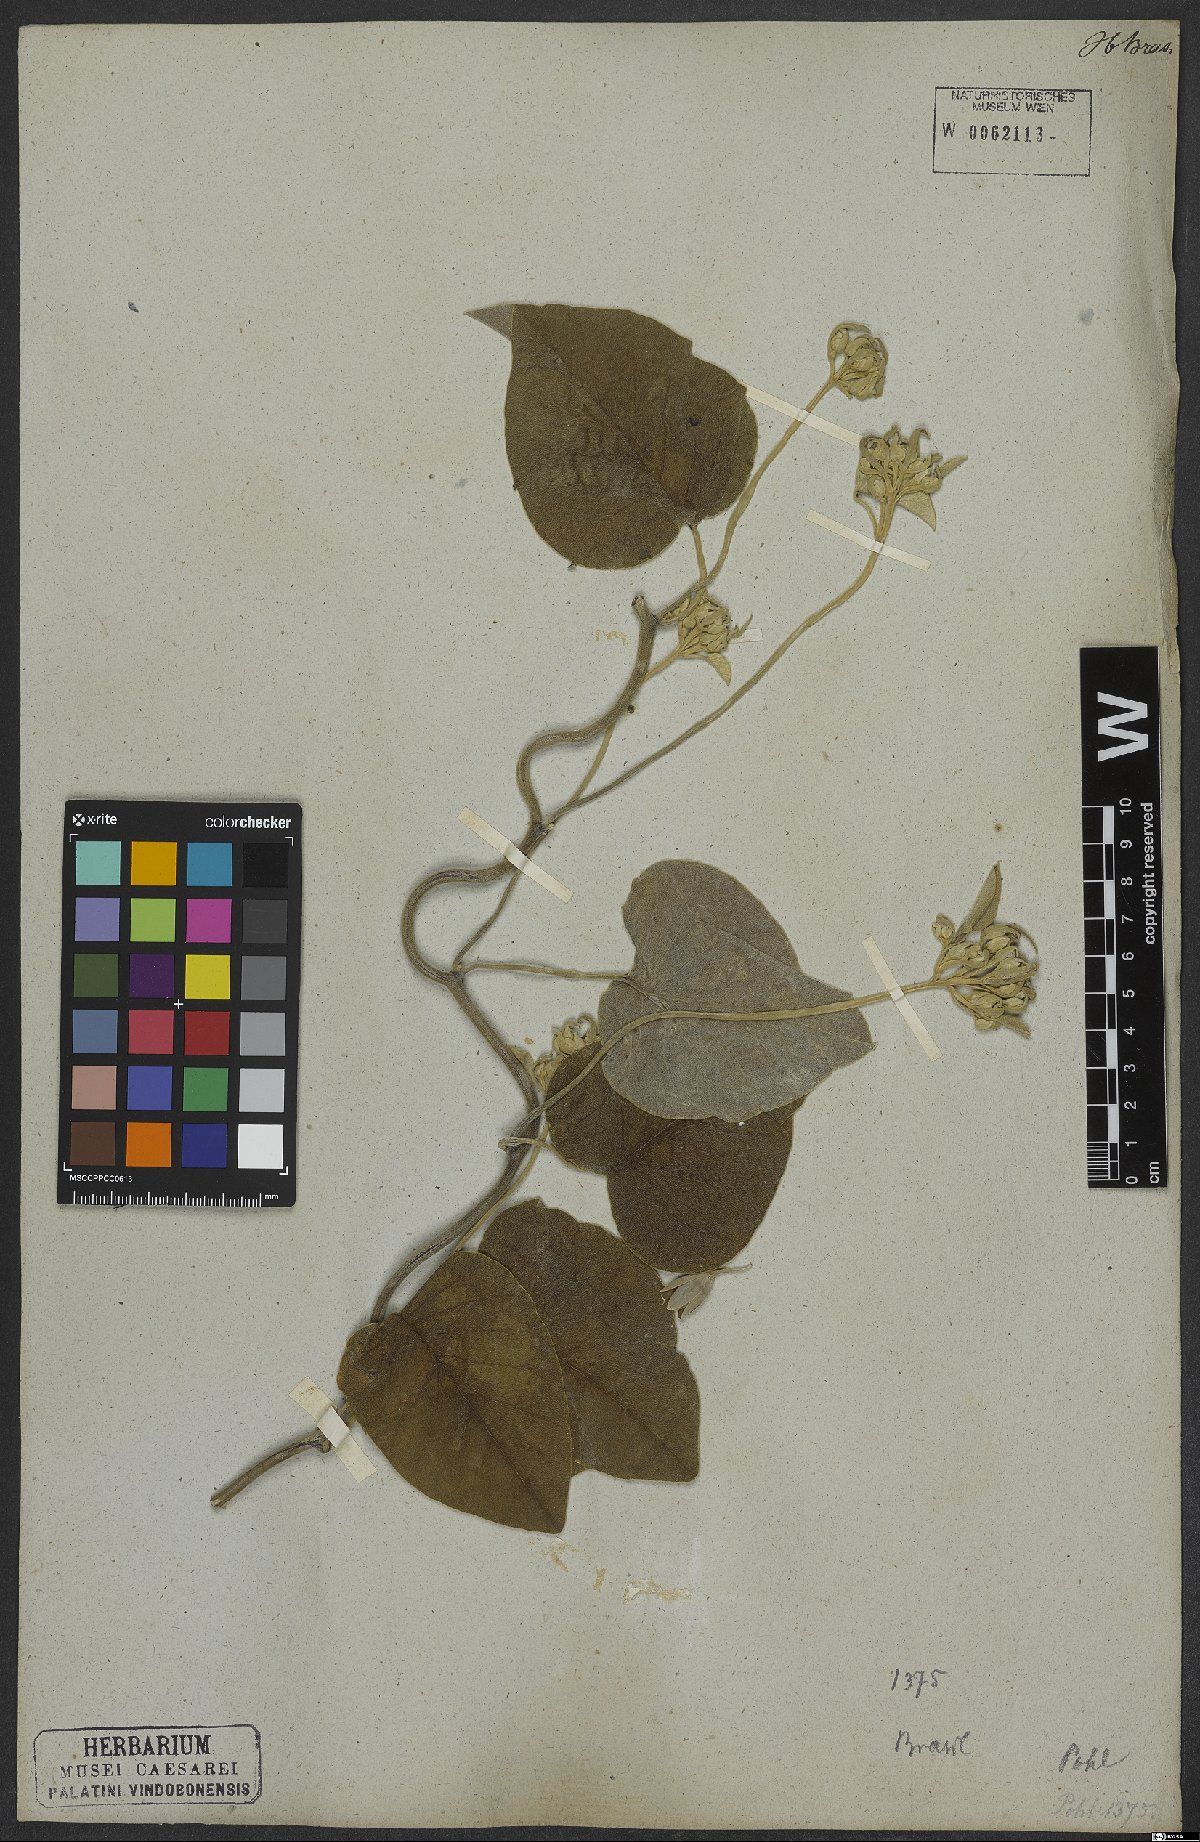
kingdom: Plantae
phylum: Tracheophyta
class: Magnoliopsida
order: Solanales
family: Convolvulaceae
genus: Ipomoea
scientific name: Ipomoea sericosepala
